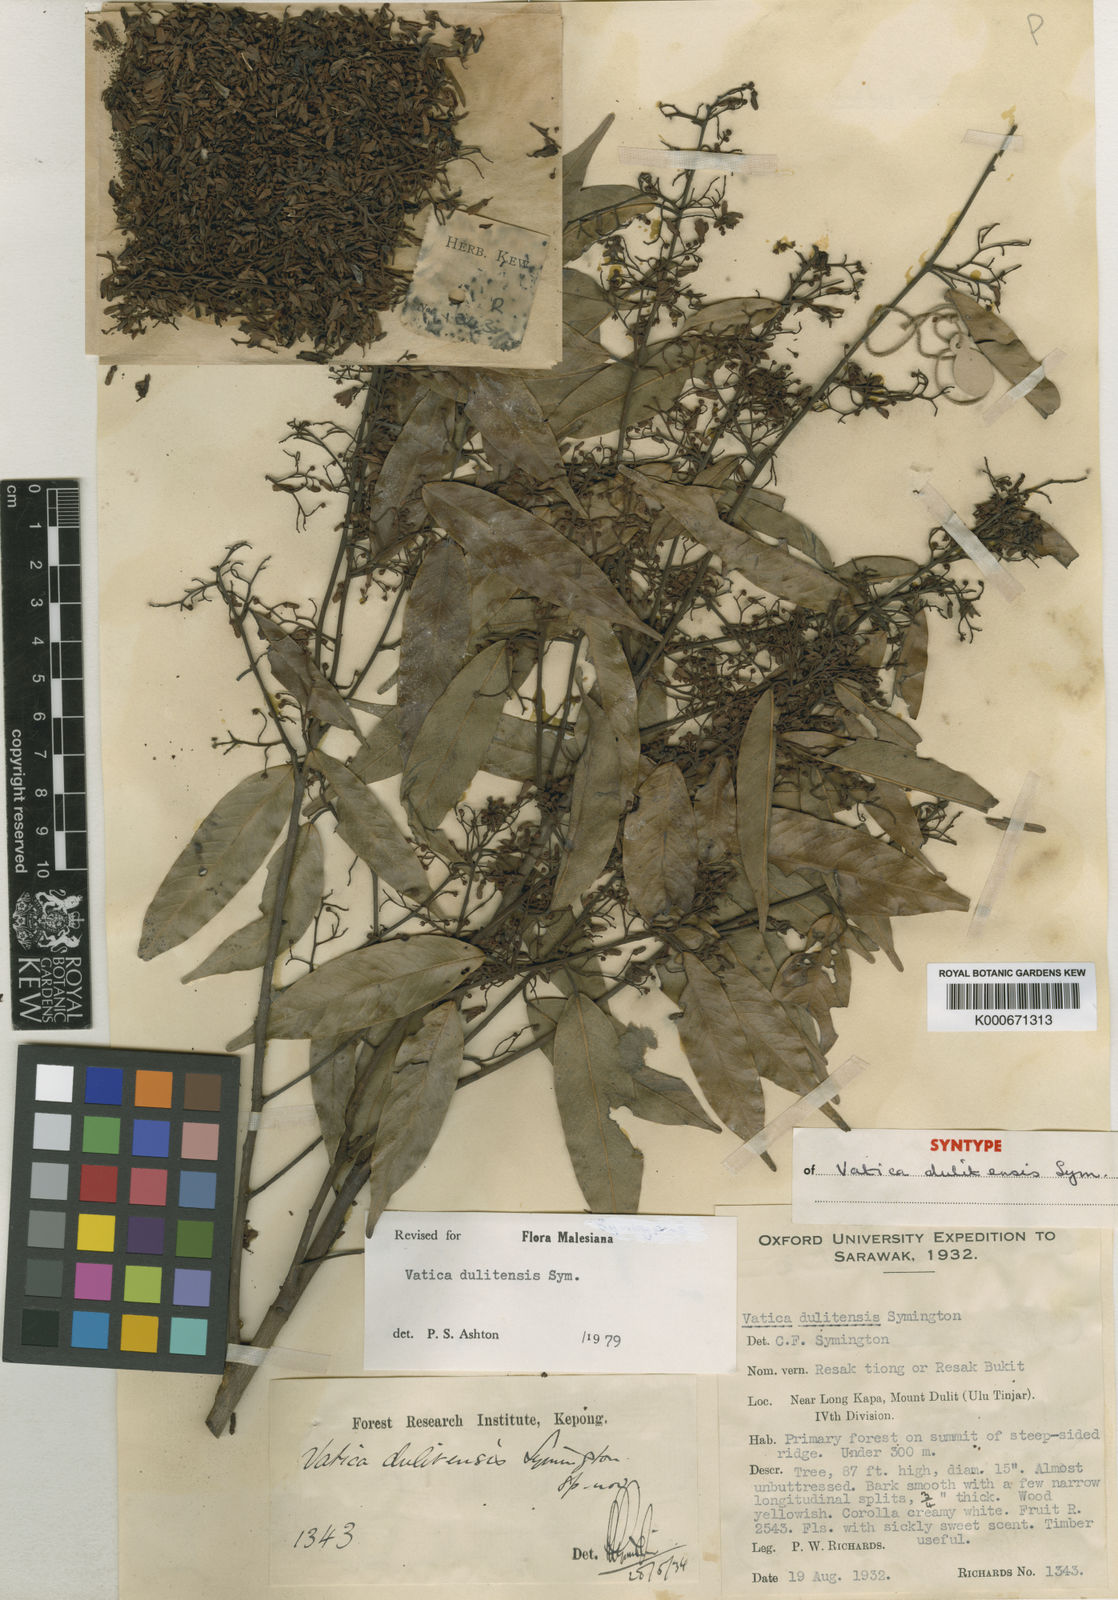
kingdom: Plantae
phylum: Tracheophyta
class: Magnoliopsida
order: Malvales
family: Dipterocarpaceae
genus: Vatica
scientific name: Vatica dulitensis
